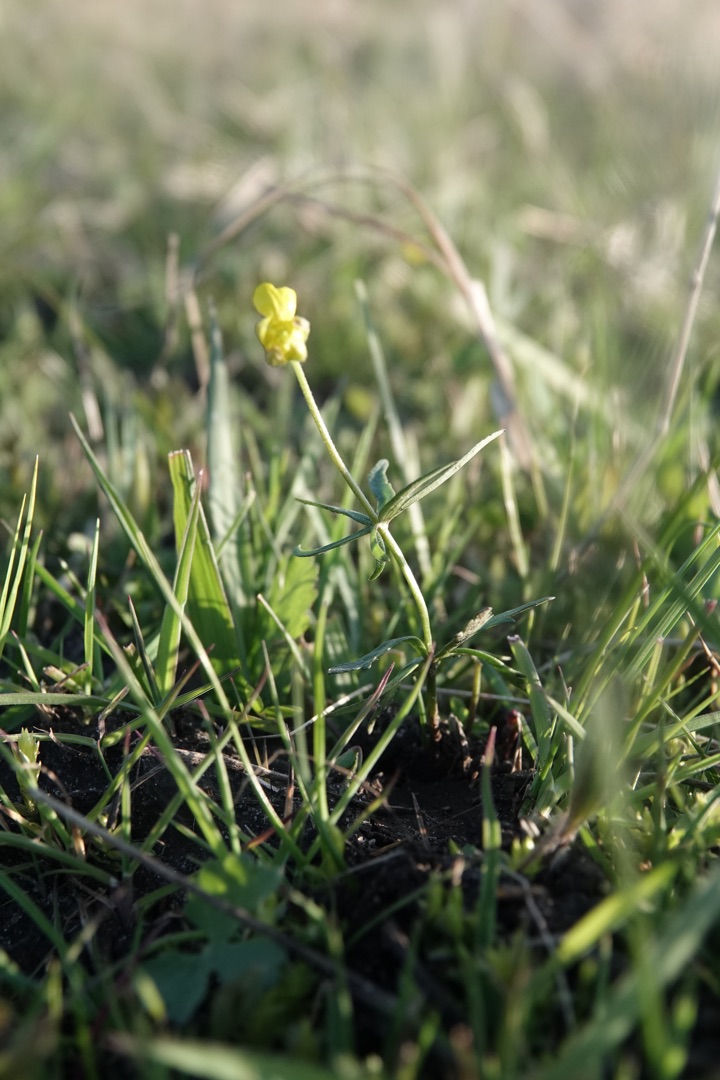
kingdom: Plantae
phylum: Tracheophyta
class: Magnoliopsida
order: Ranunculales
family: Ranunculaceae
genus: Ranunculus
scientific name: Ranunculus auricomus
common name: Nyrebladet ranunkel
